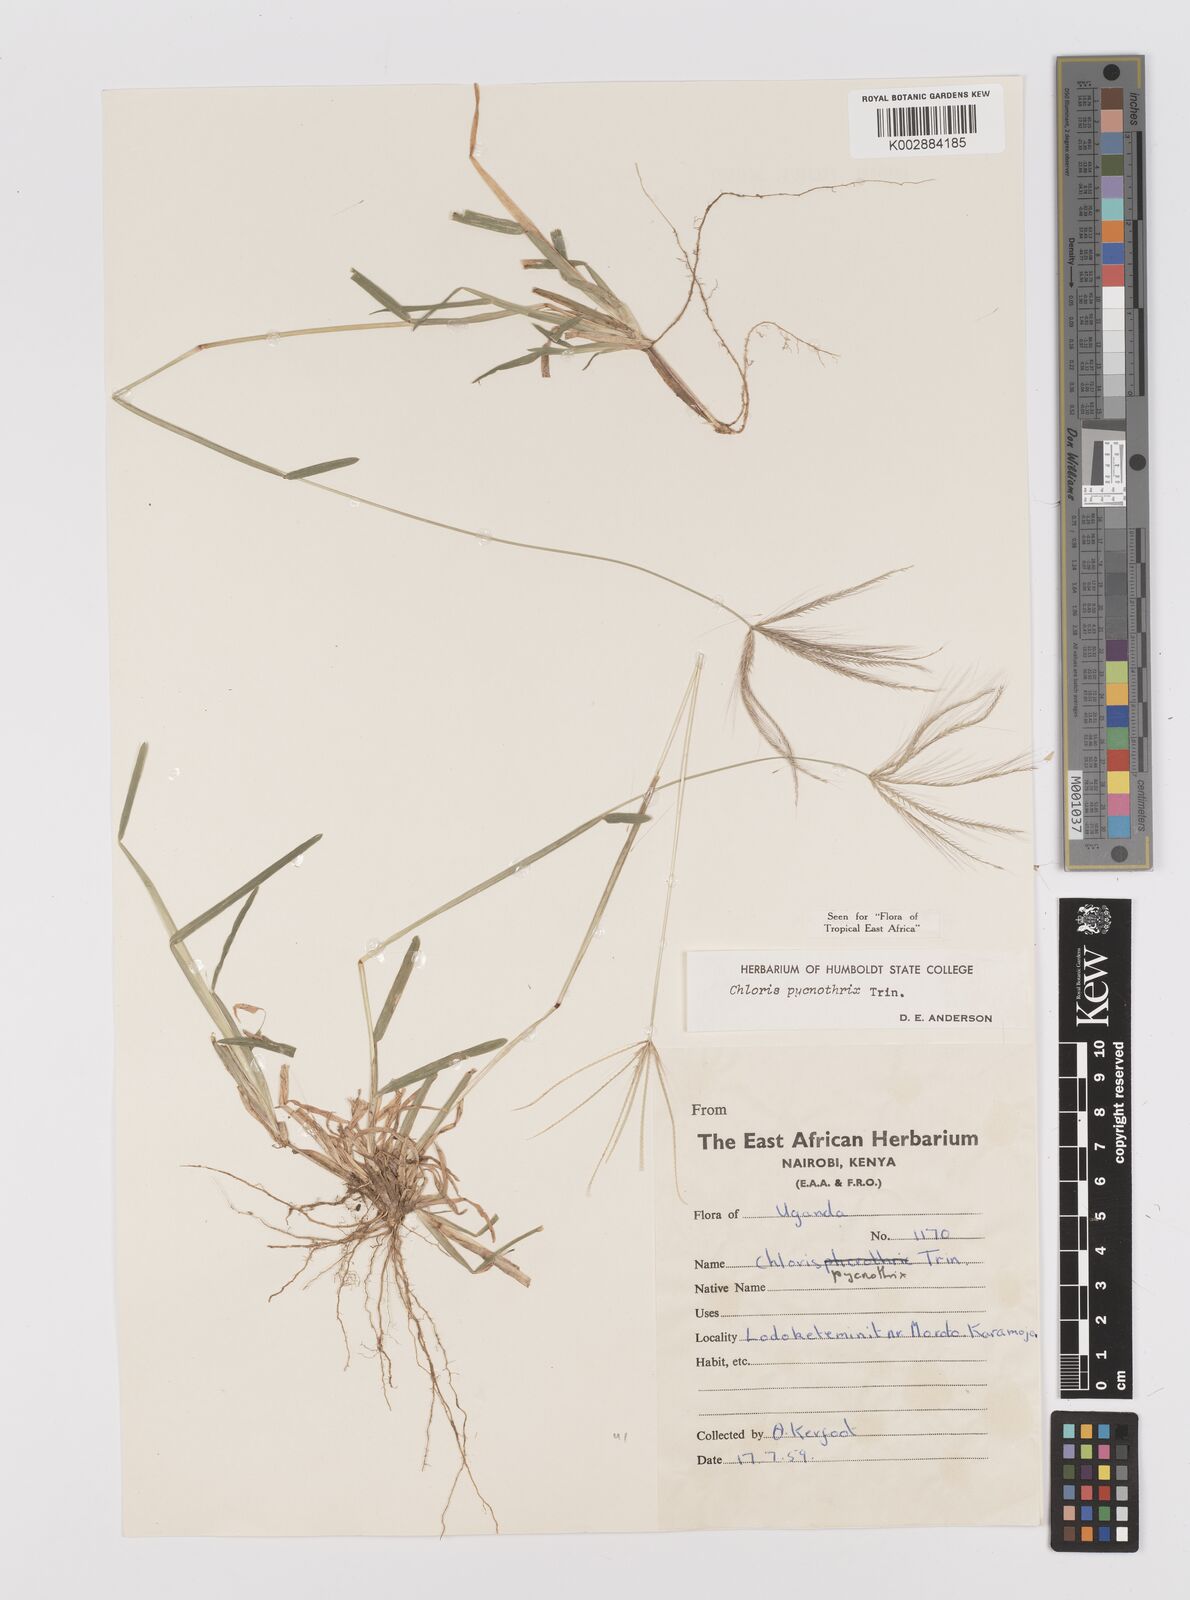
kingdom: Plantae
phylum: Tracheophyta
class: Liliopsida
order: Poales
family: Poaceae
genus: Chloris
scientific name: Chloris pycnothrix
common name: Spiderweb chloris
